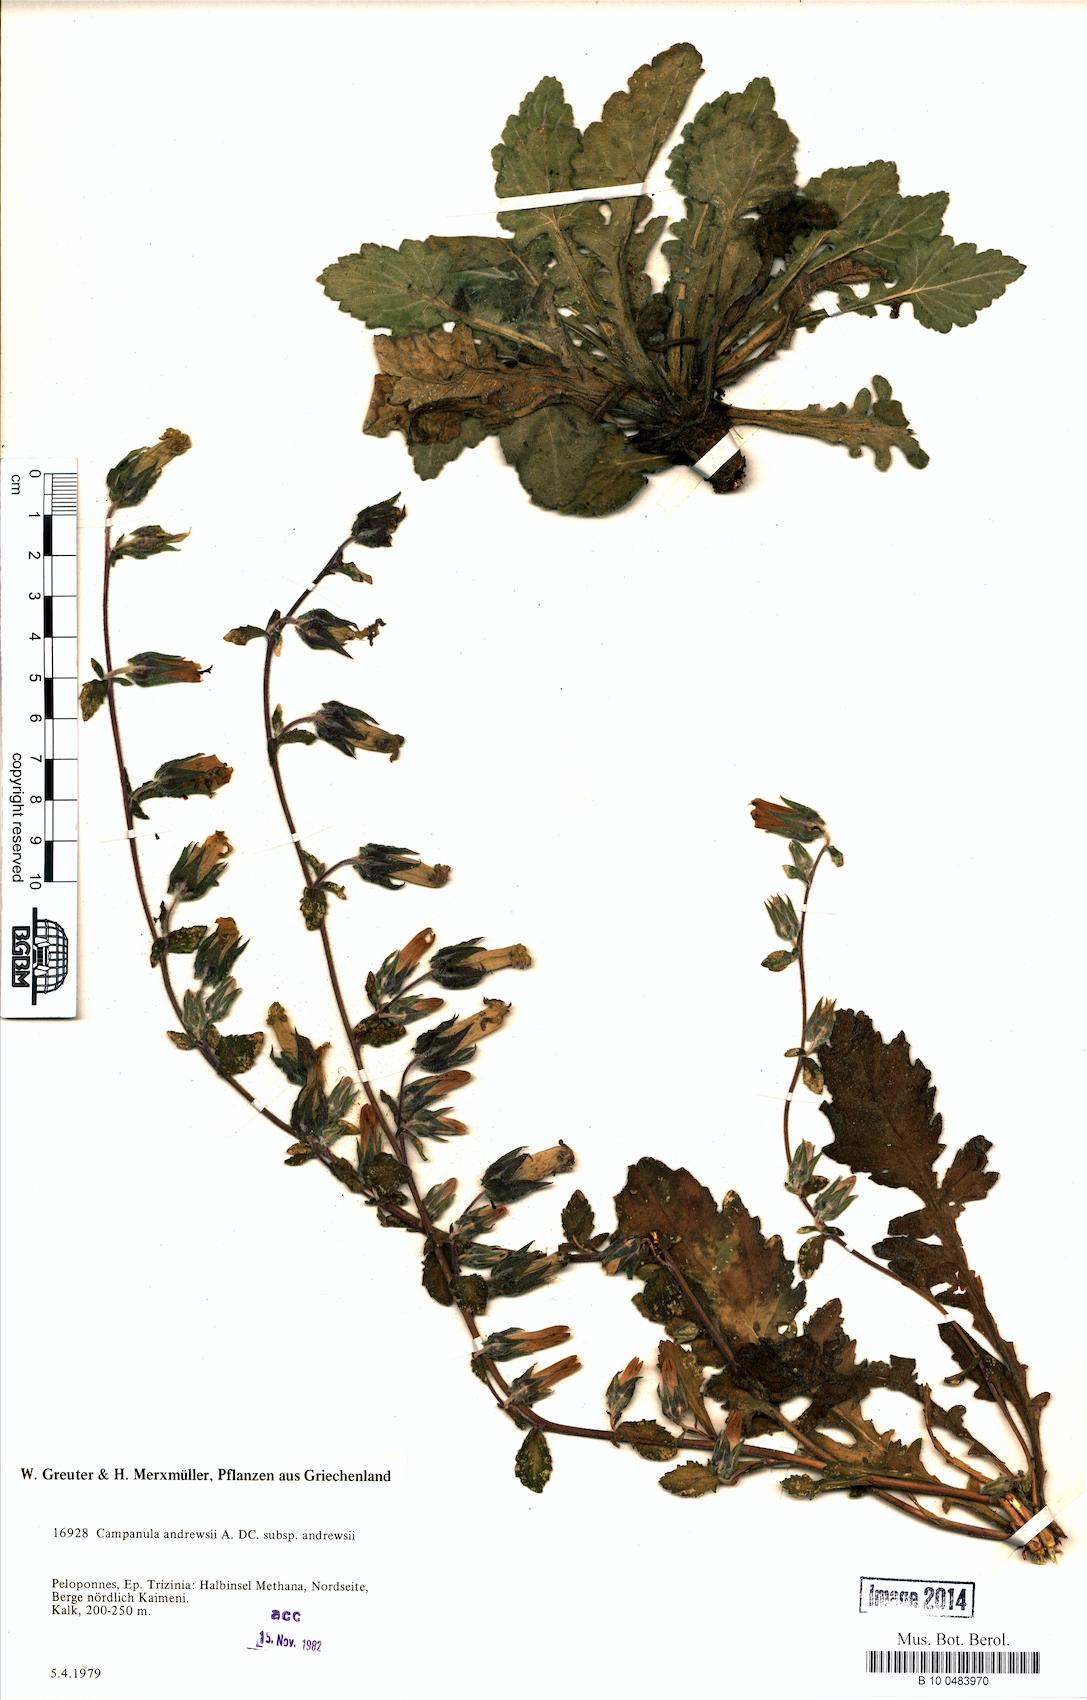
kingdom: Plantae
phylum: Tracheophyta
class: Magnoliopsida
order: Asterales
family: Campanulaceae
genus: Campanula
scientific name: Campanula andrewsii
